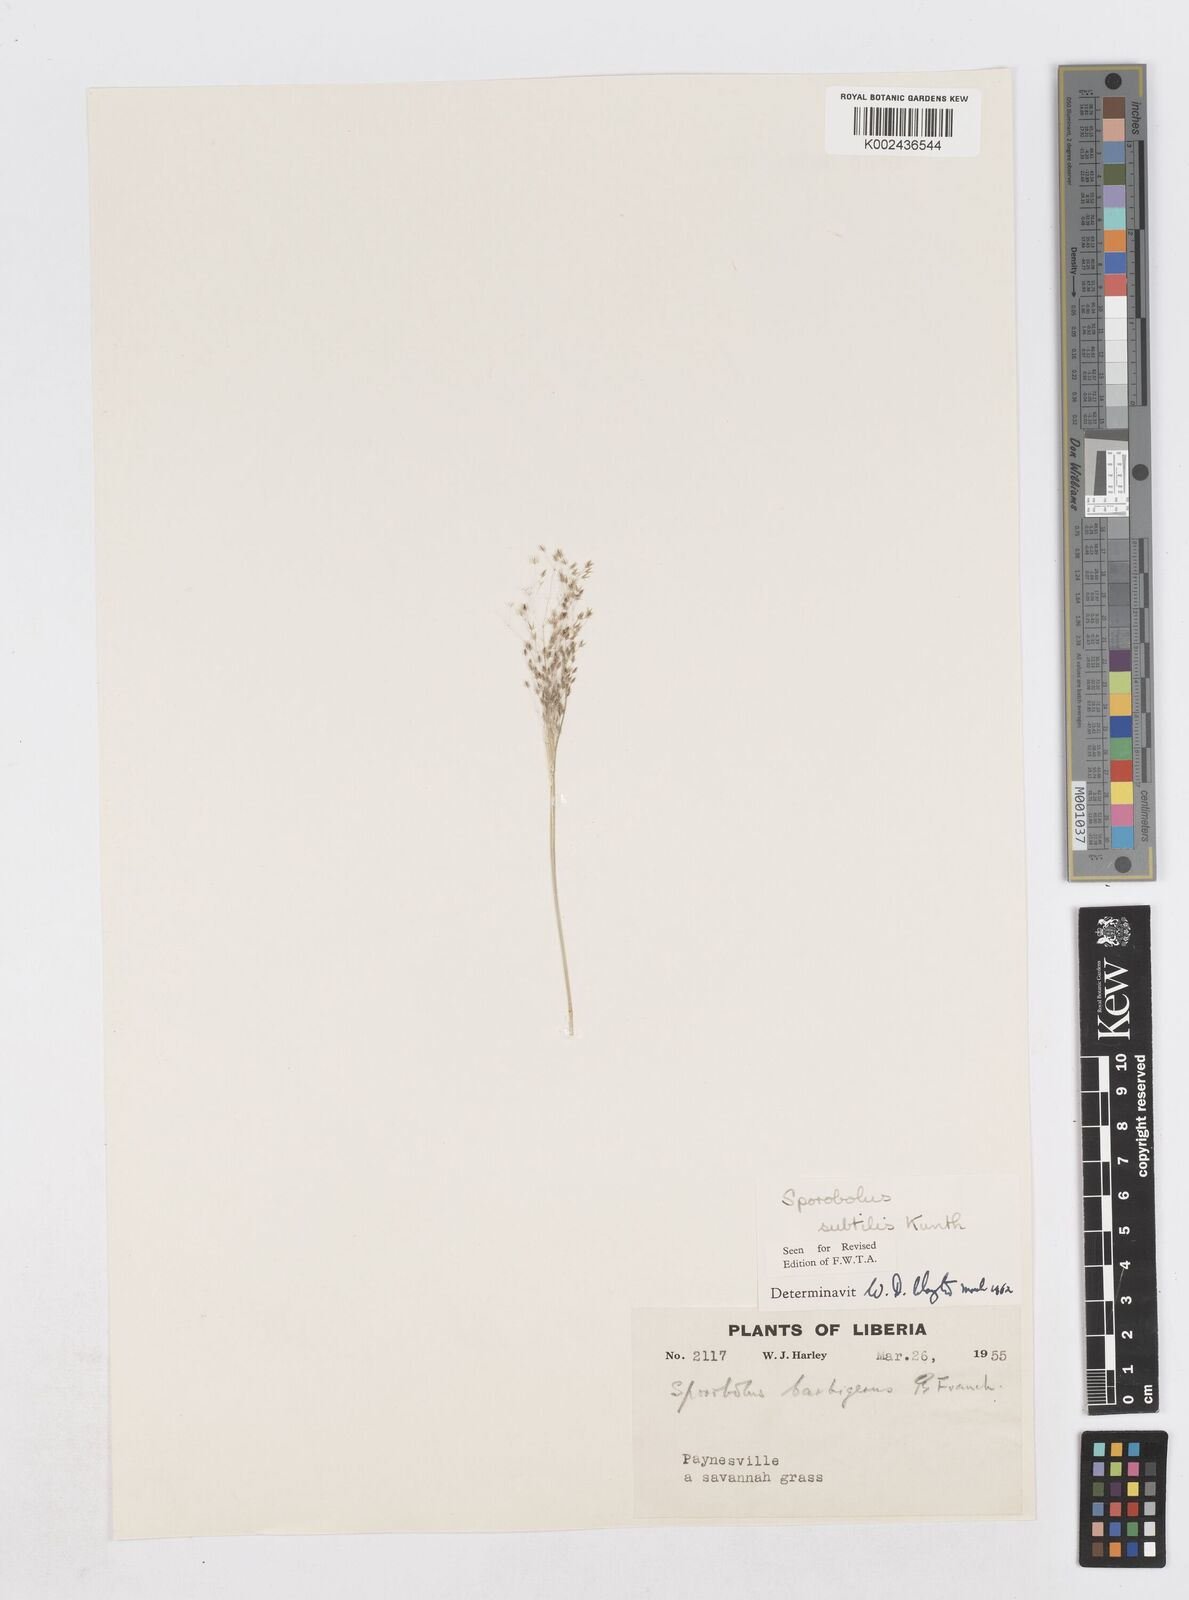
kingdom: Plantae
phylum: Tracheophyta
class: Liliopsida
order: Poales
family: Poaceae
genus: Sporobolus
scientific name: Sporobolus subtilis
